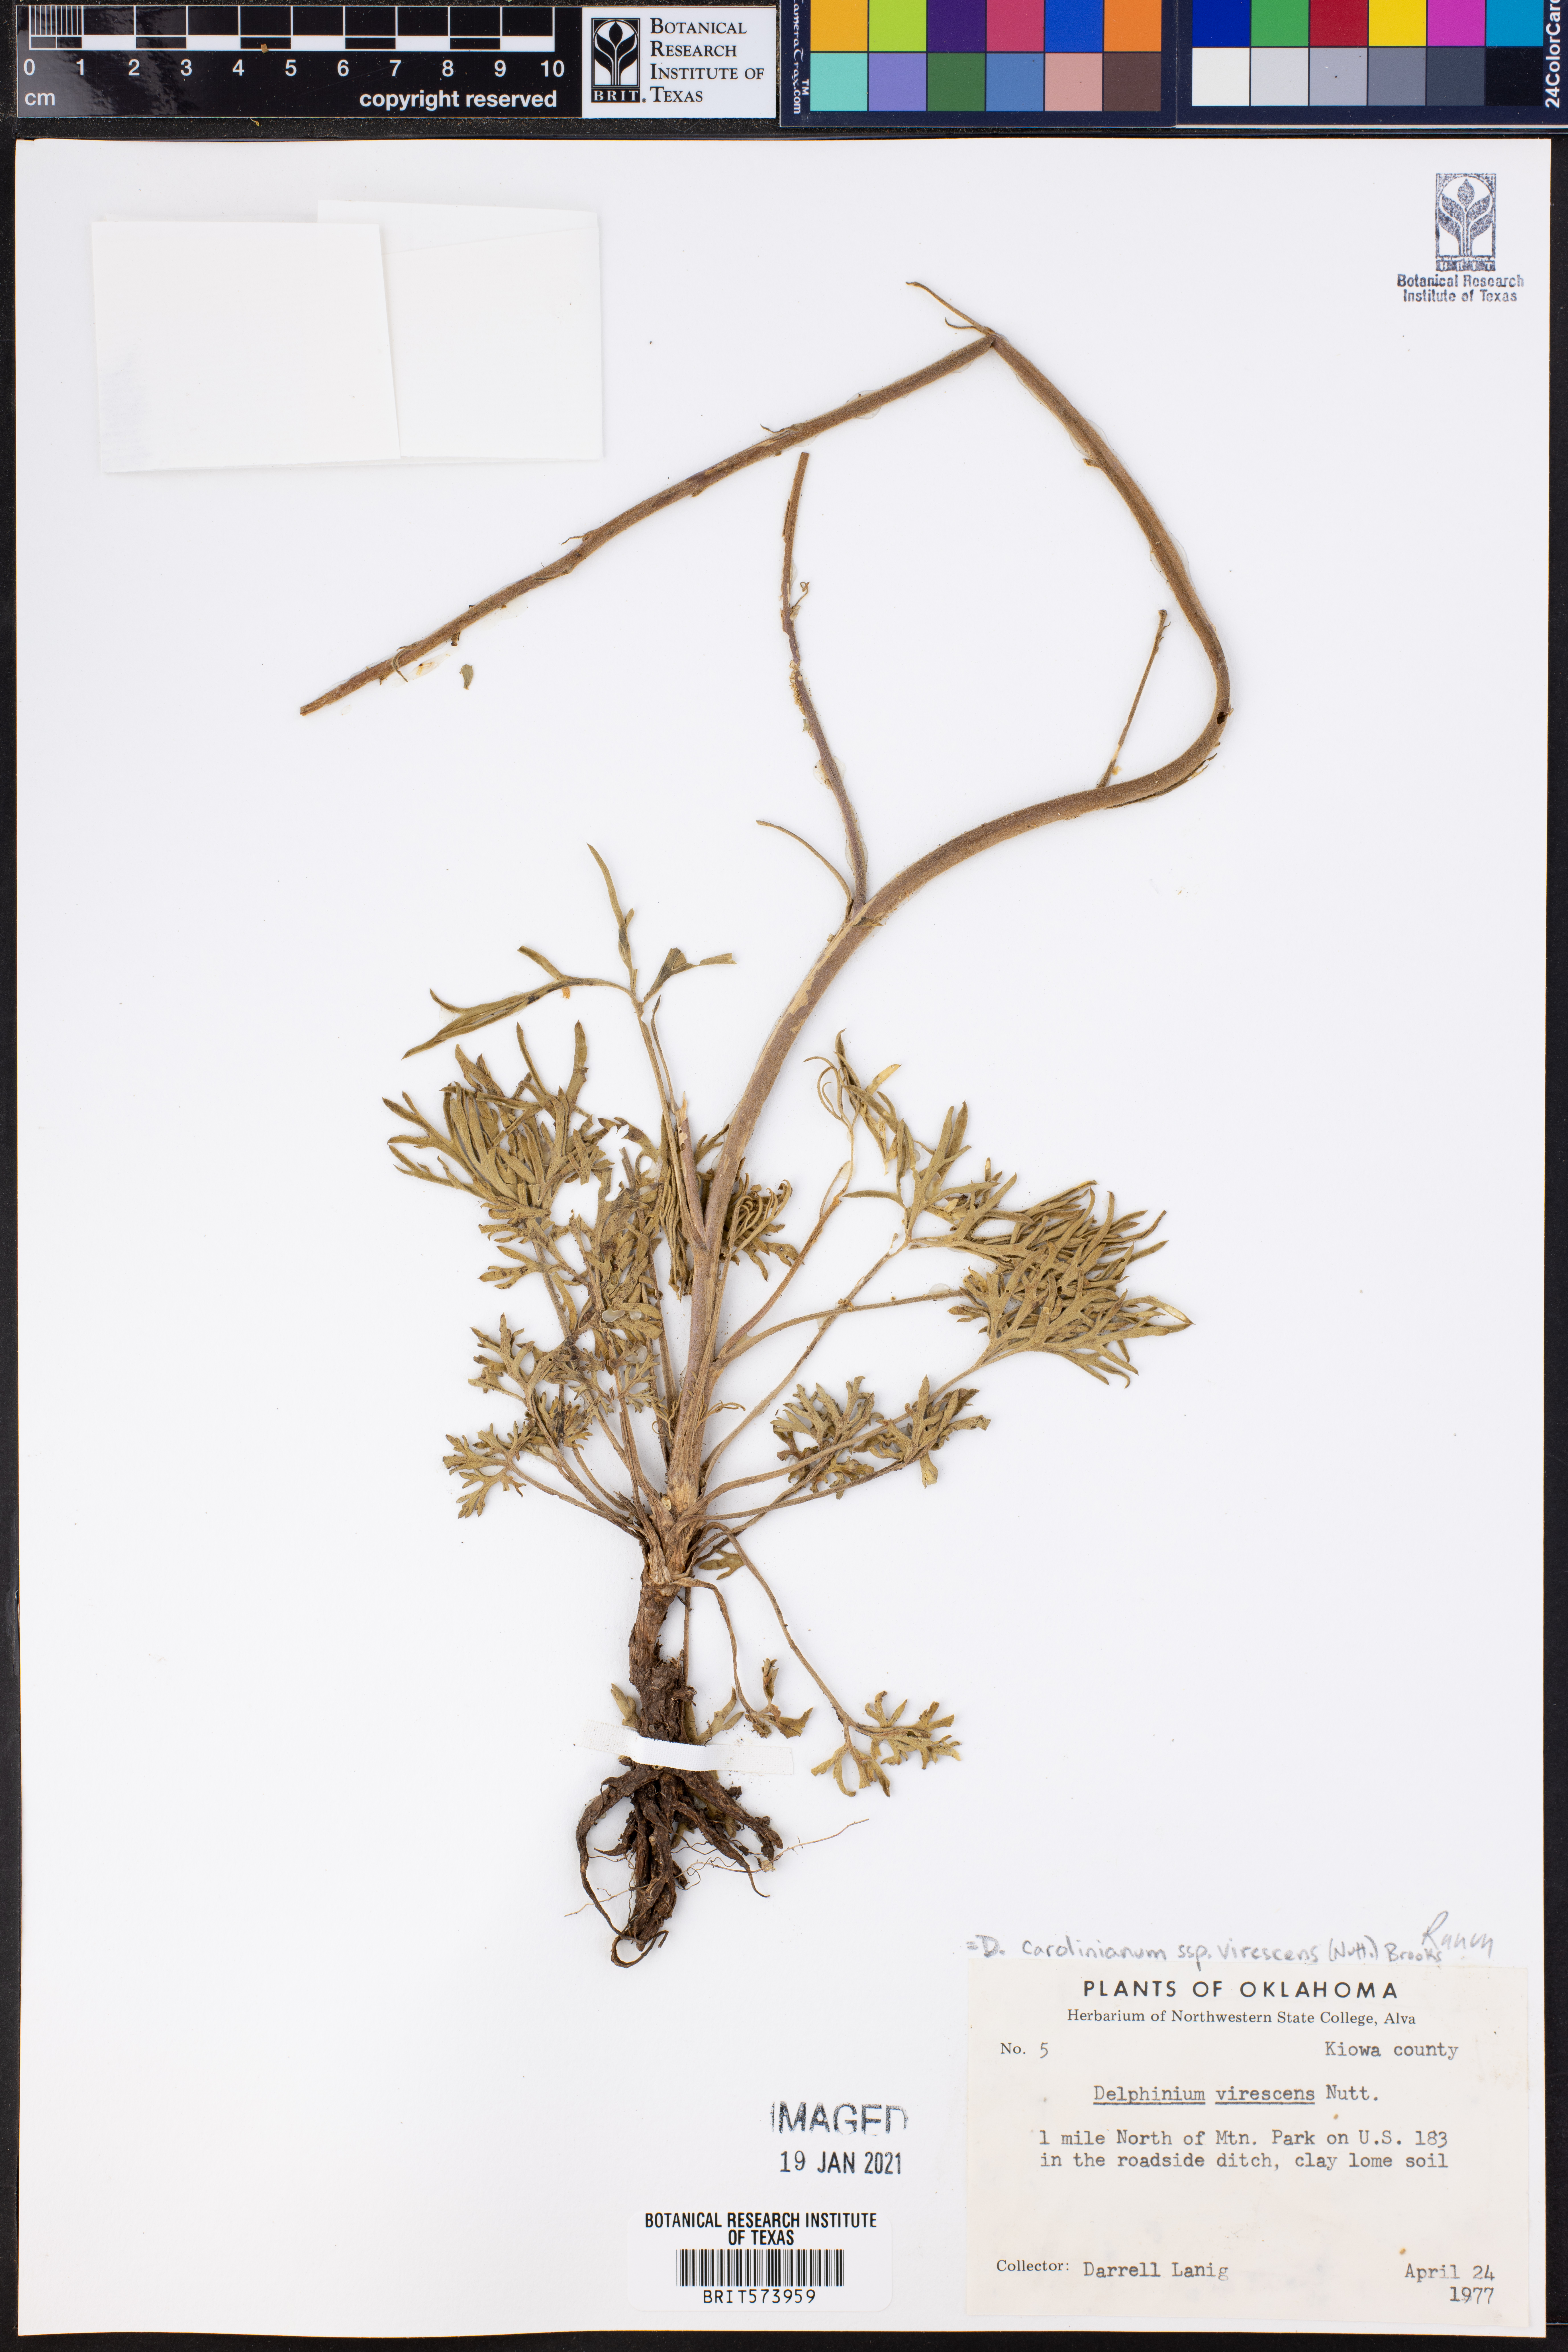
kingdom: Plantae
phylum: Tracheophyta
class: Magnoliopsida
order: Ranunculales
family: Ranunculaceae
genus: Delphinium
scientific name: Delphinium carolinianum
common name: Carolina larkspur
